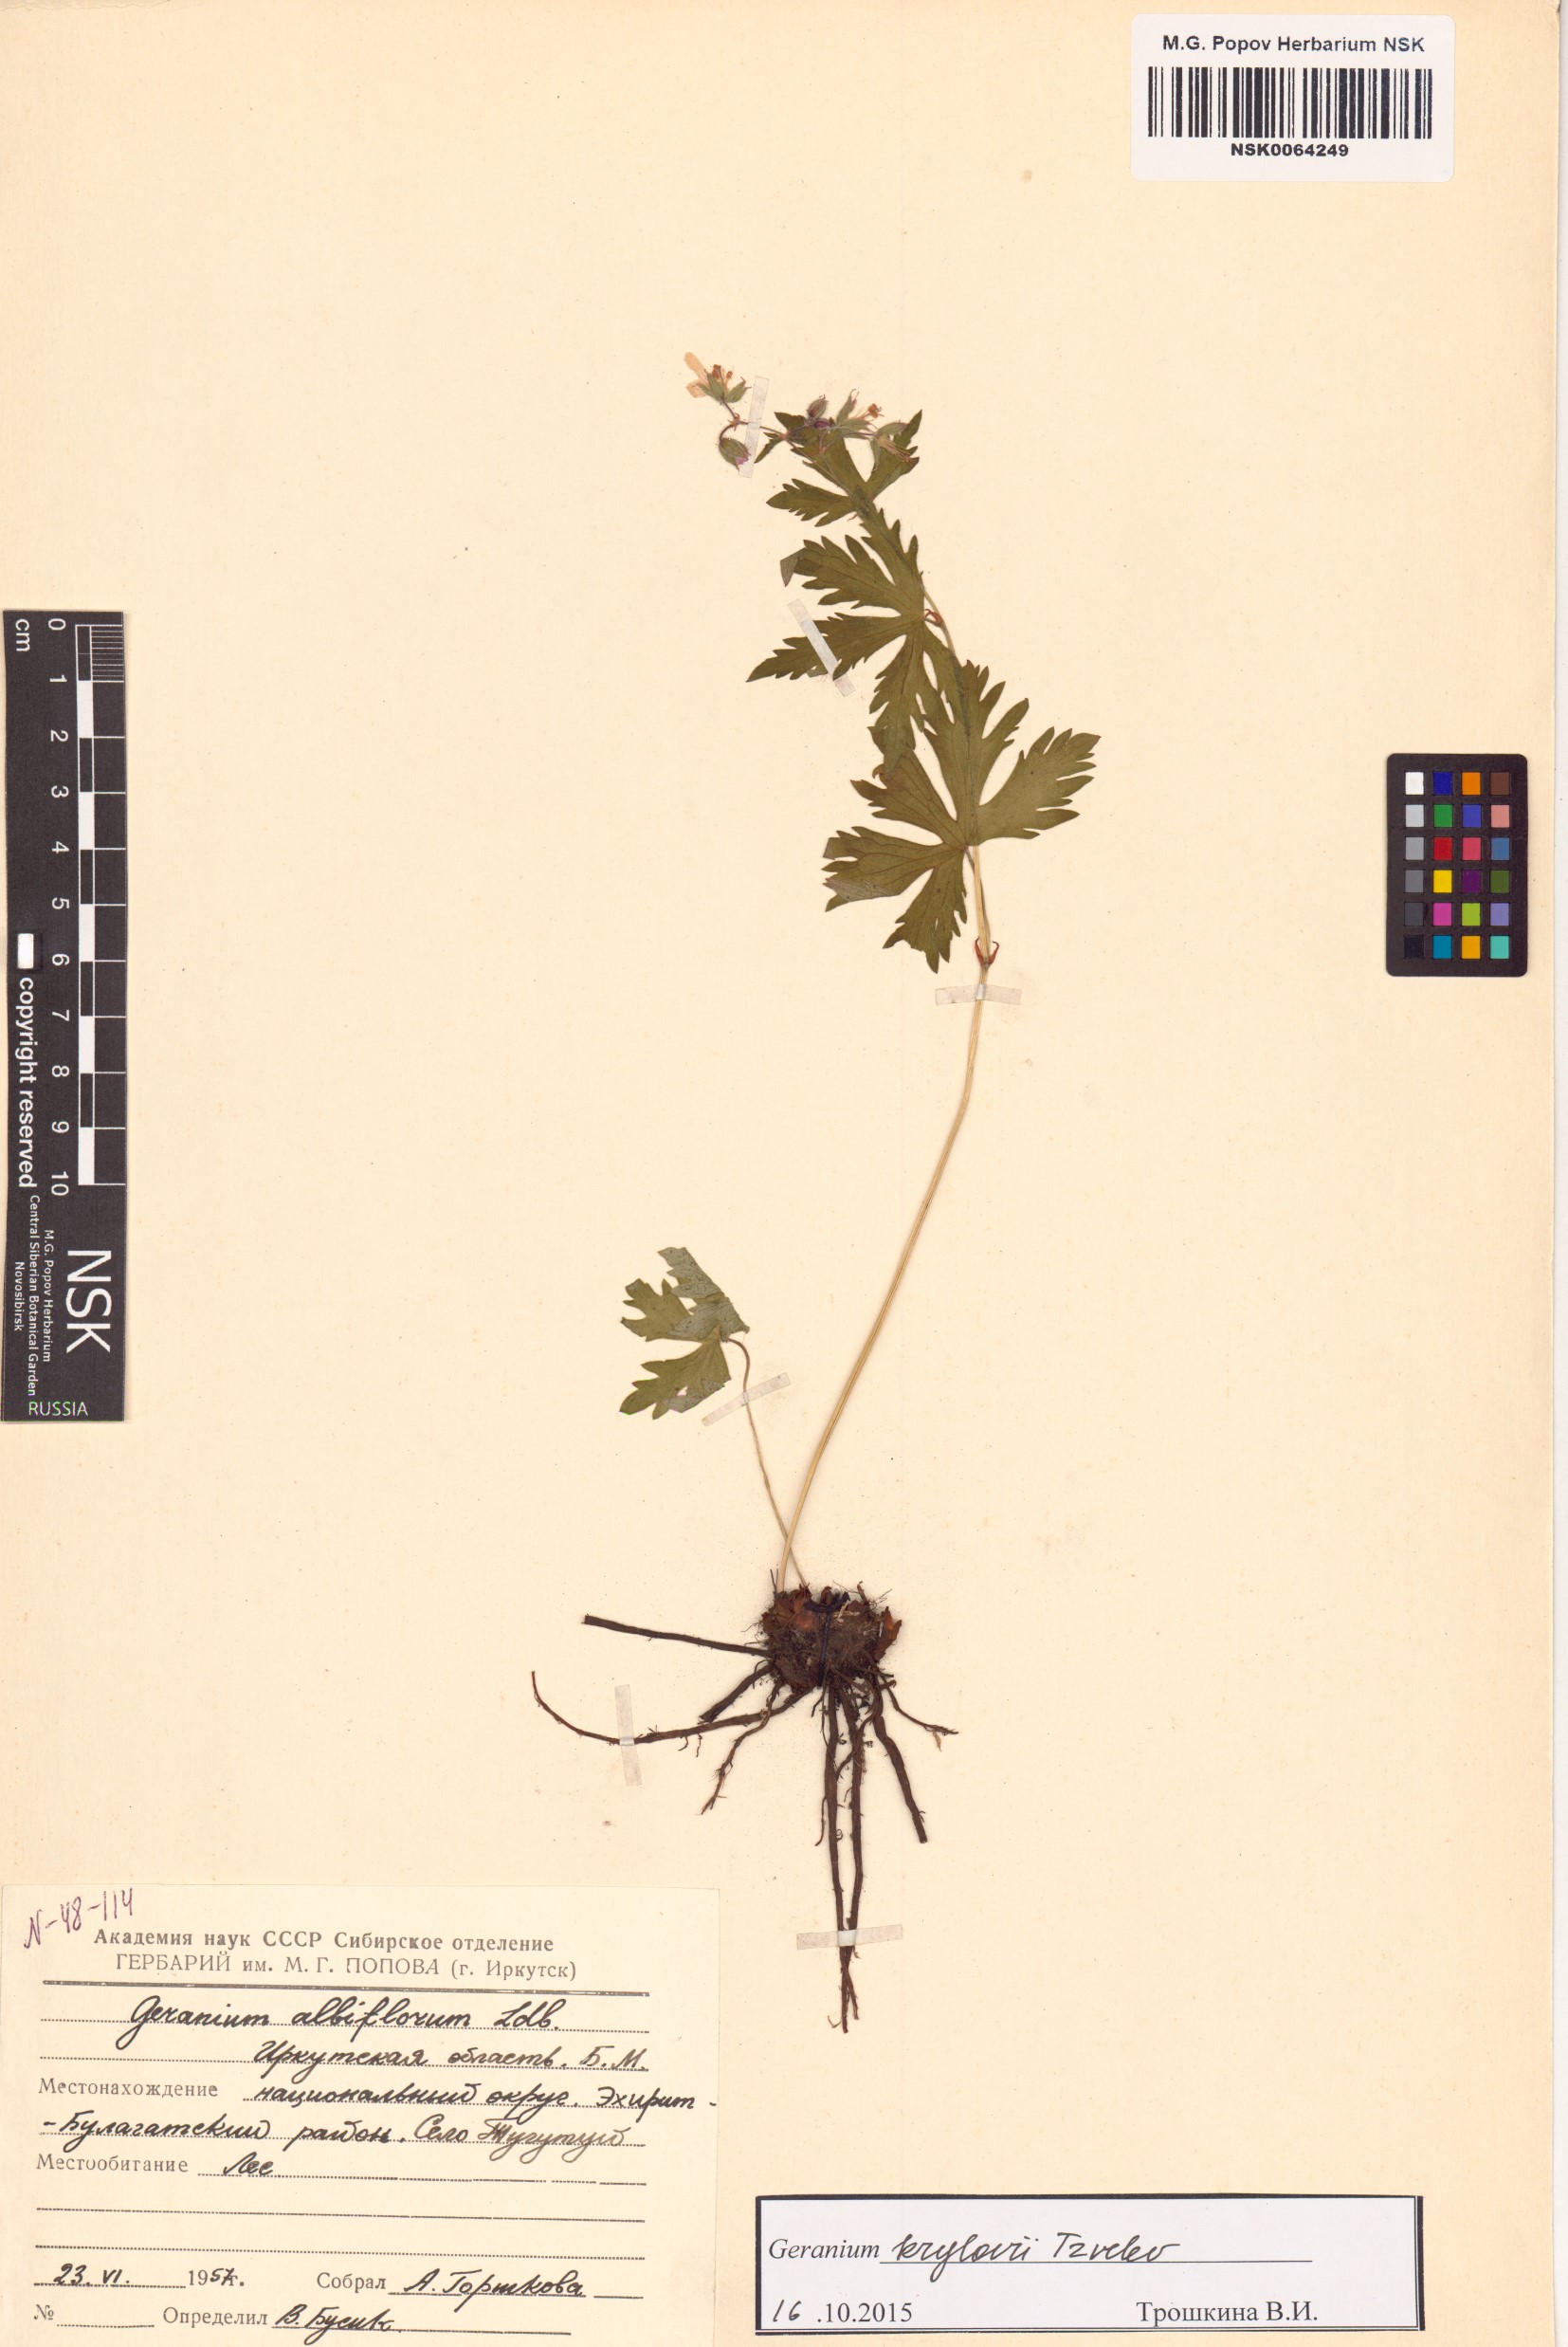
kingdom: Plantae
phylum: Tracheophyta
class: Magnoliopsida
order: Geraniales
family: Geraniaceae
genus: Geranium
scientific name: Geranium sylvaticum
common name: Wood crane's-bill
